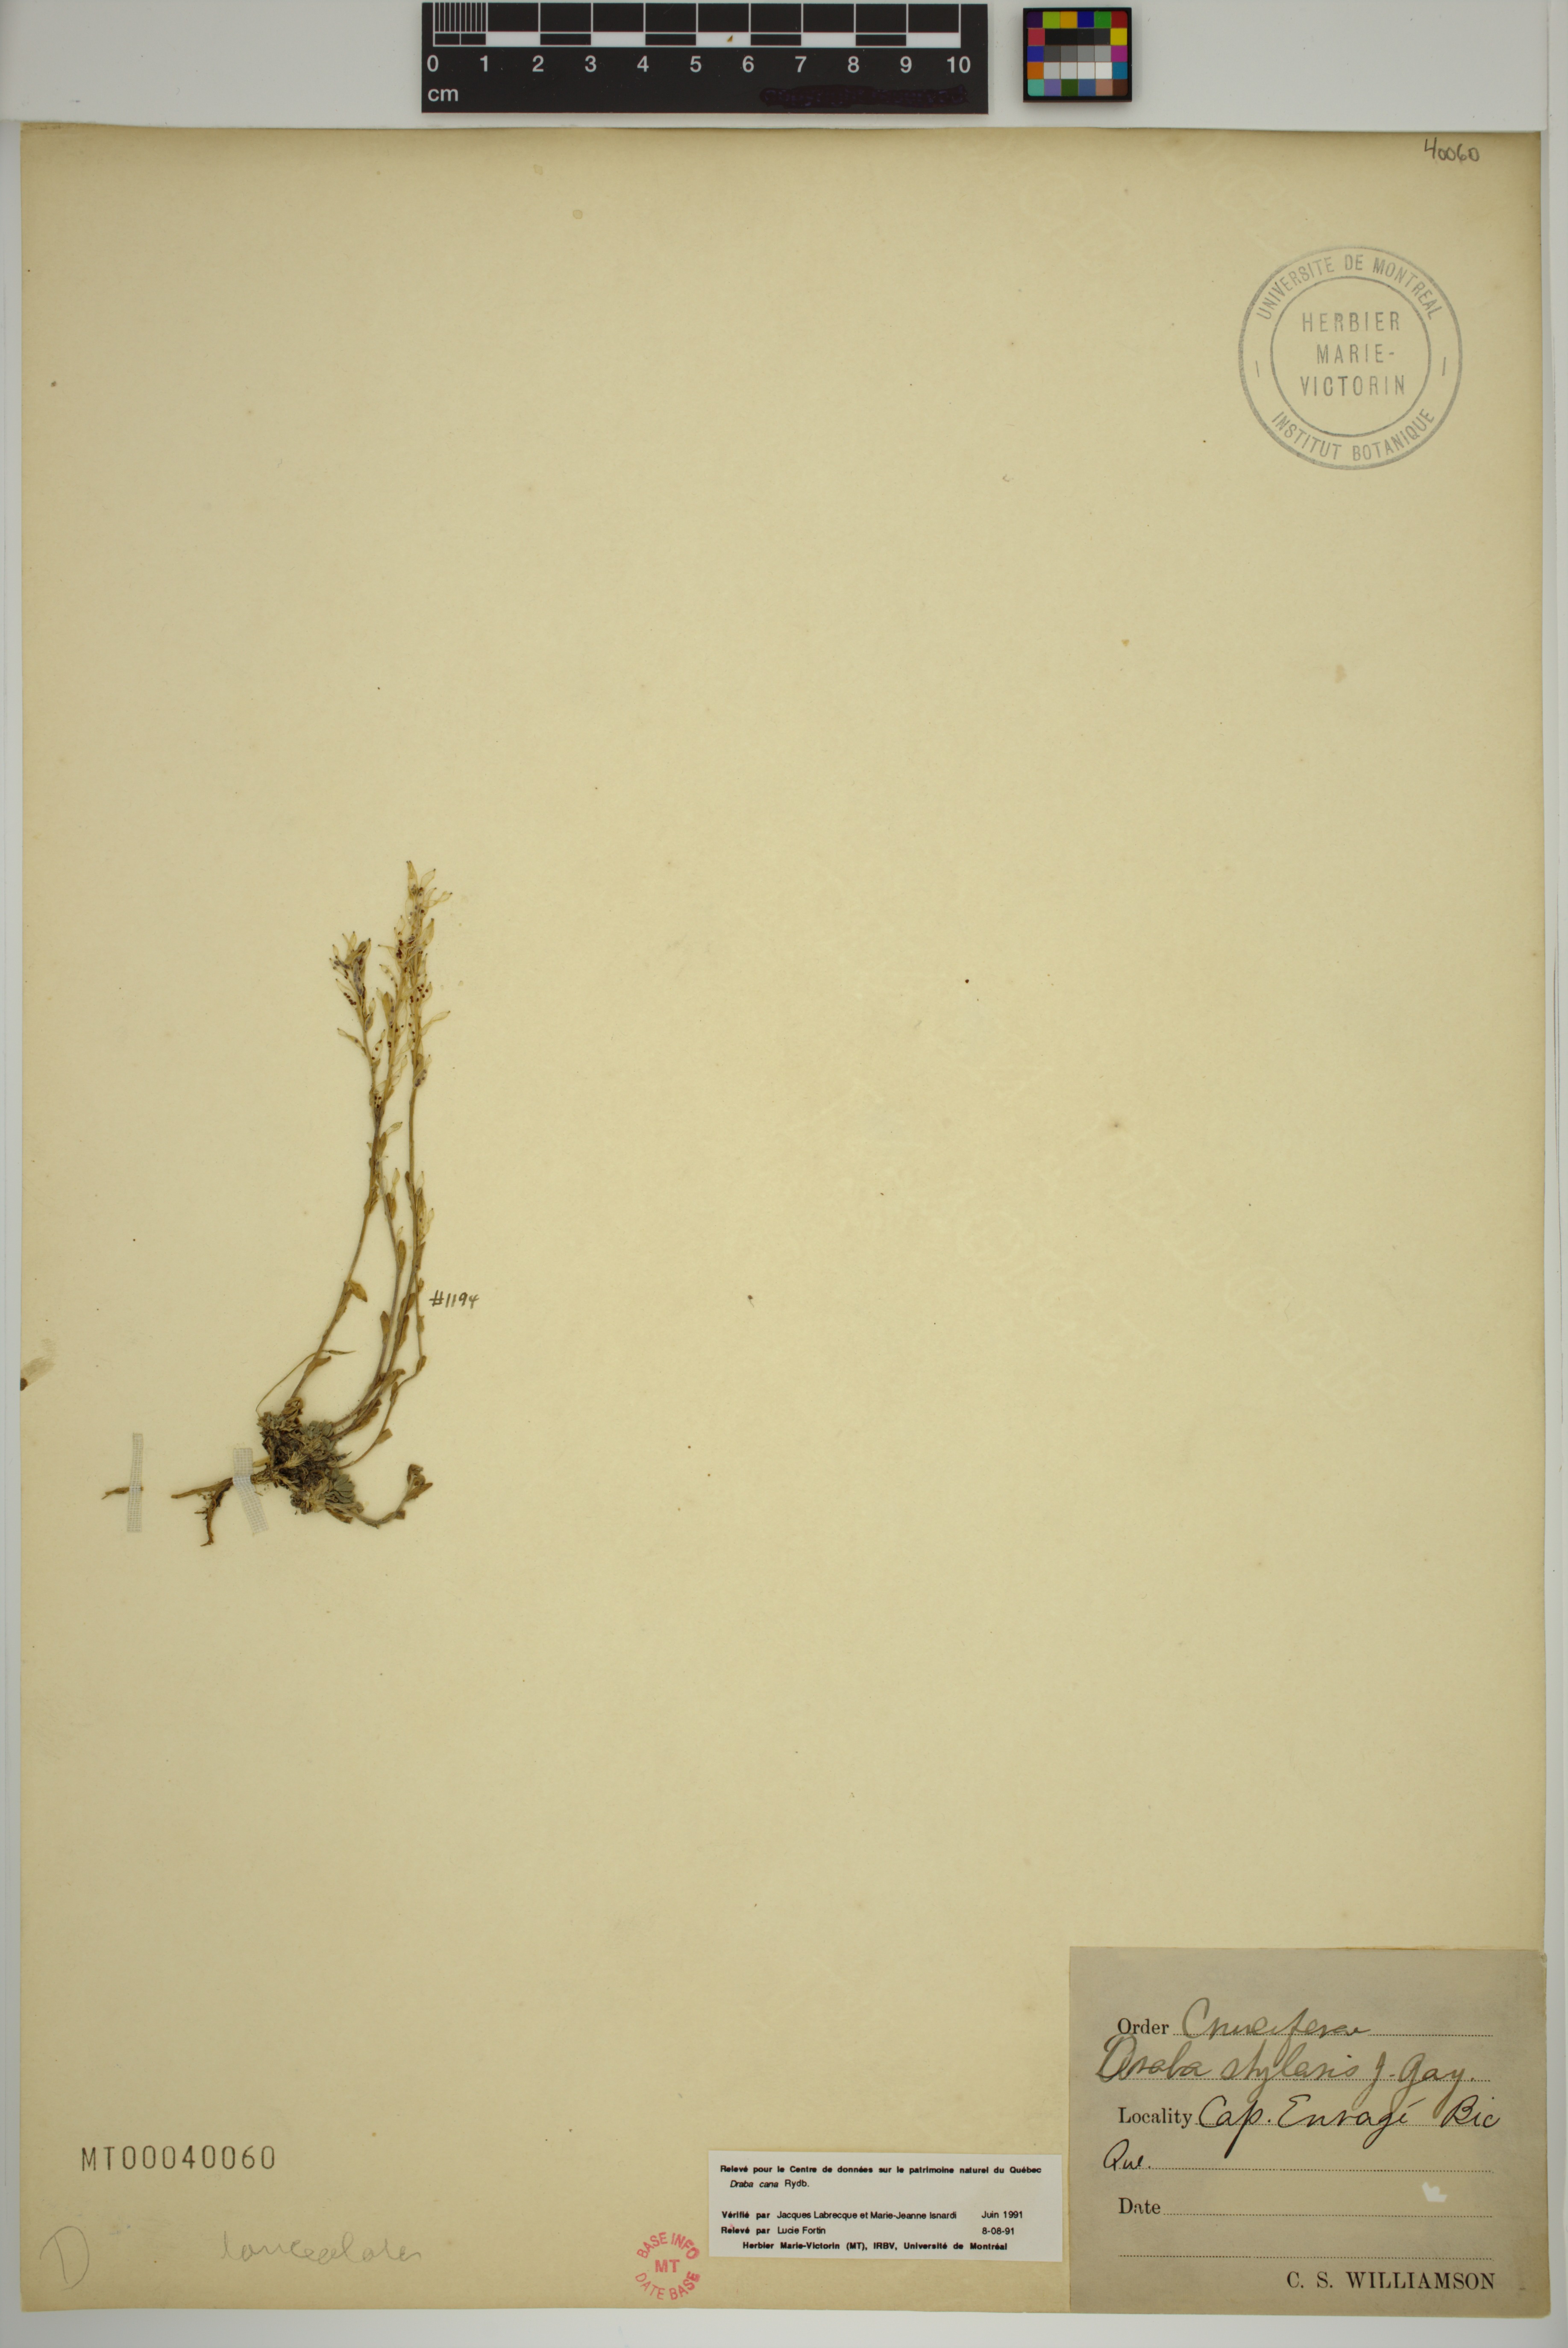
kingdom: Plantae
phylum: Tracheophyta
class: Magnoliopsida
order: Brassicales
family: Brassicaceae
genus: Draba
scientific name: Draba lanceolata
